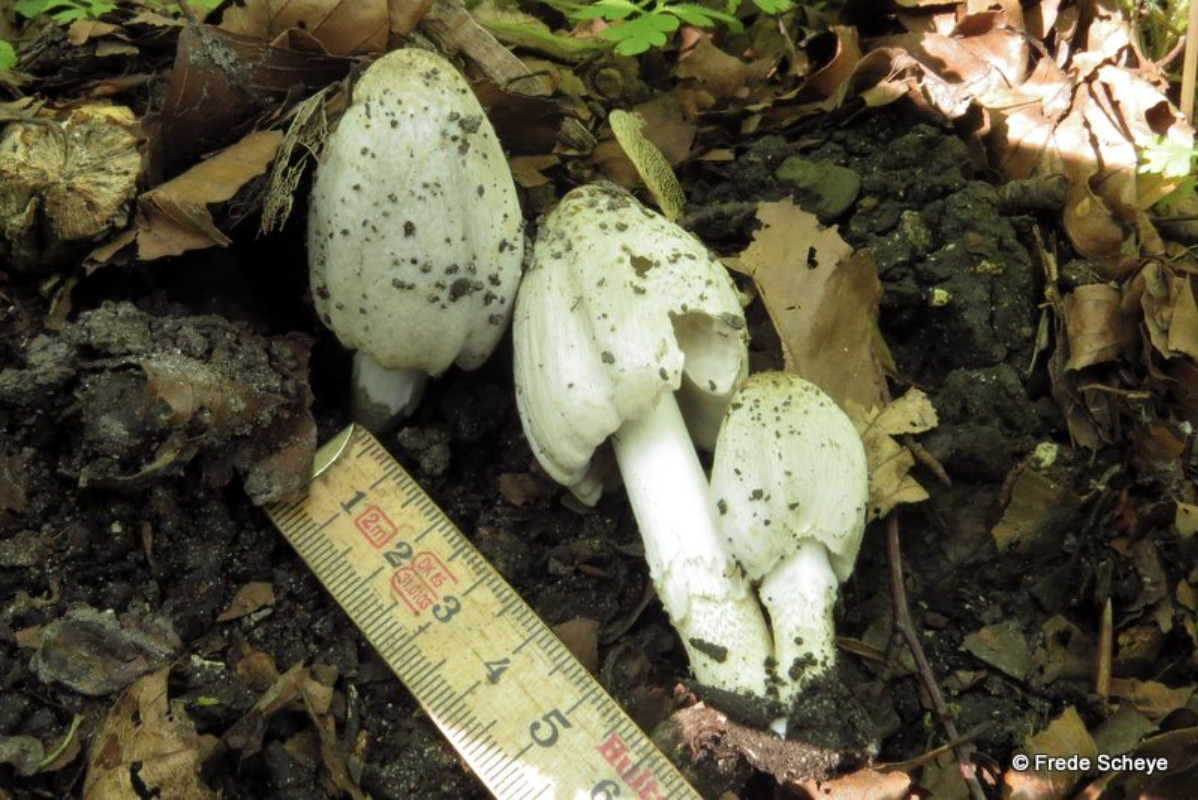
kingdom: Fungi
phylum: Basidiomycota
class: Agaricomycetes
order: Agaricales
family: Psathyrellaceae
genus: Coprinopsis
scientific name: Coprinopsis atramentaria
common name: almindelig blækhat
